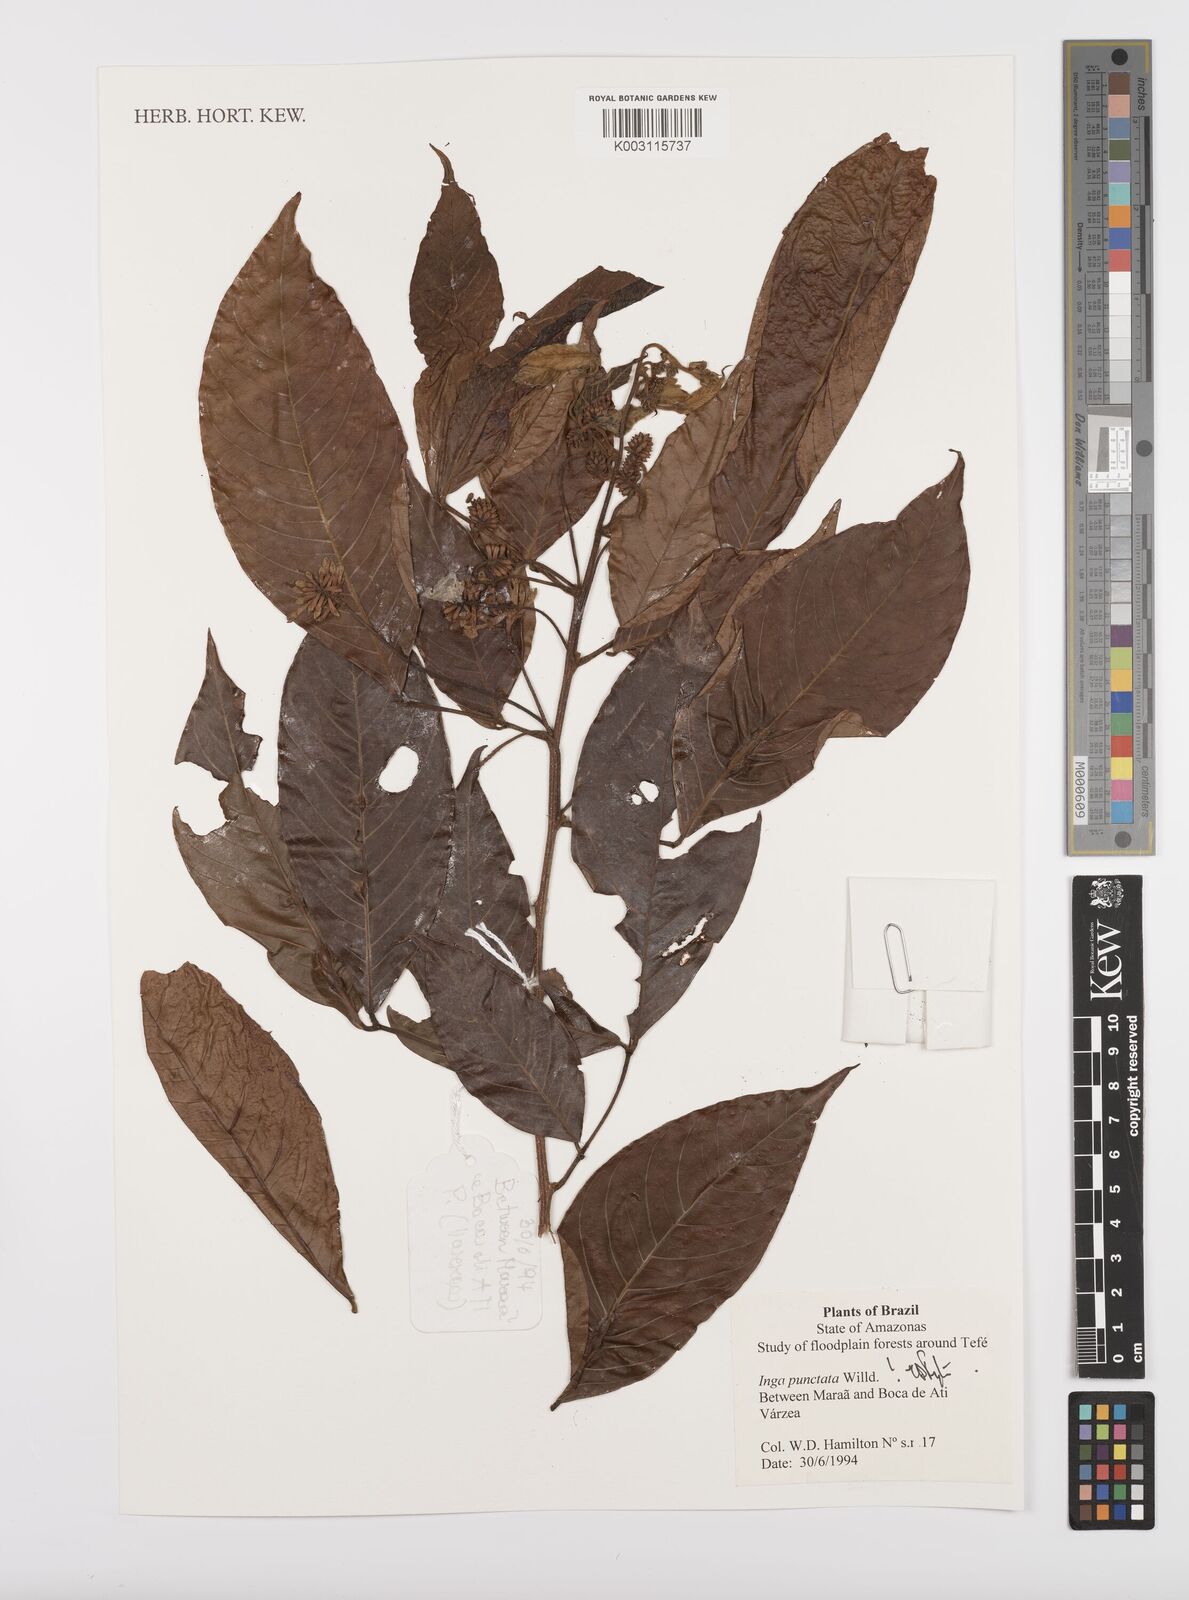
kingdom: Plantae
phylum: Tracheophyta
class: Magnoliopsida
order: Fabales
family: Fabaceae
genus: Inga
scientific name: Inga punctata
